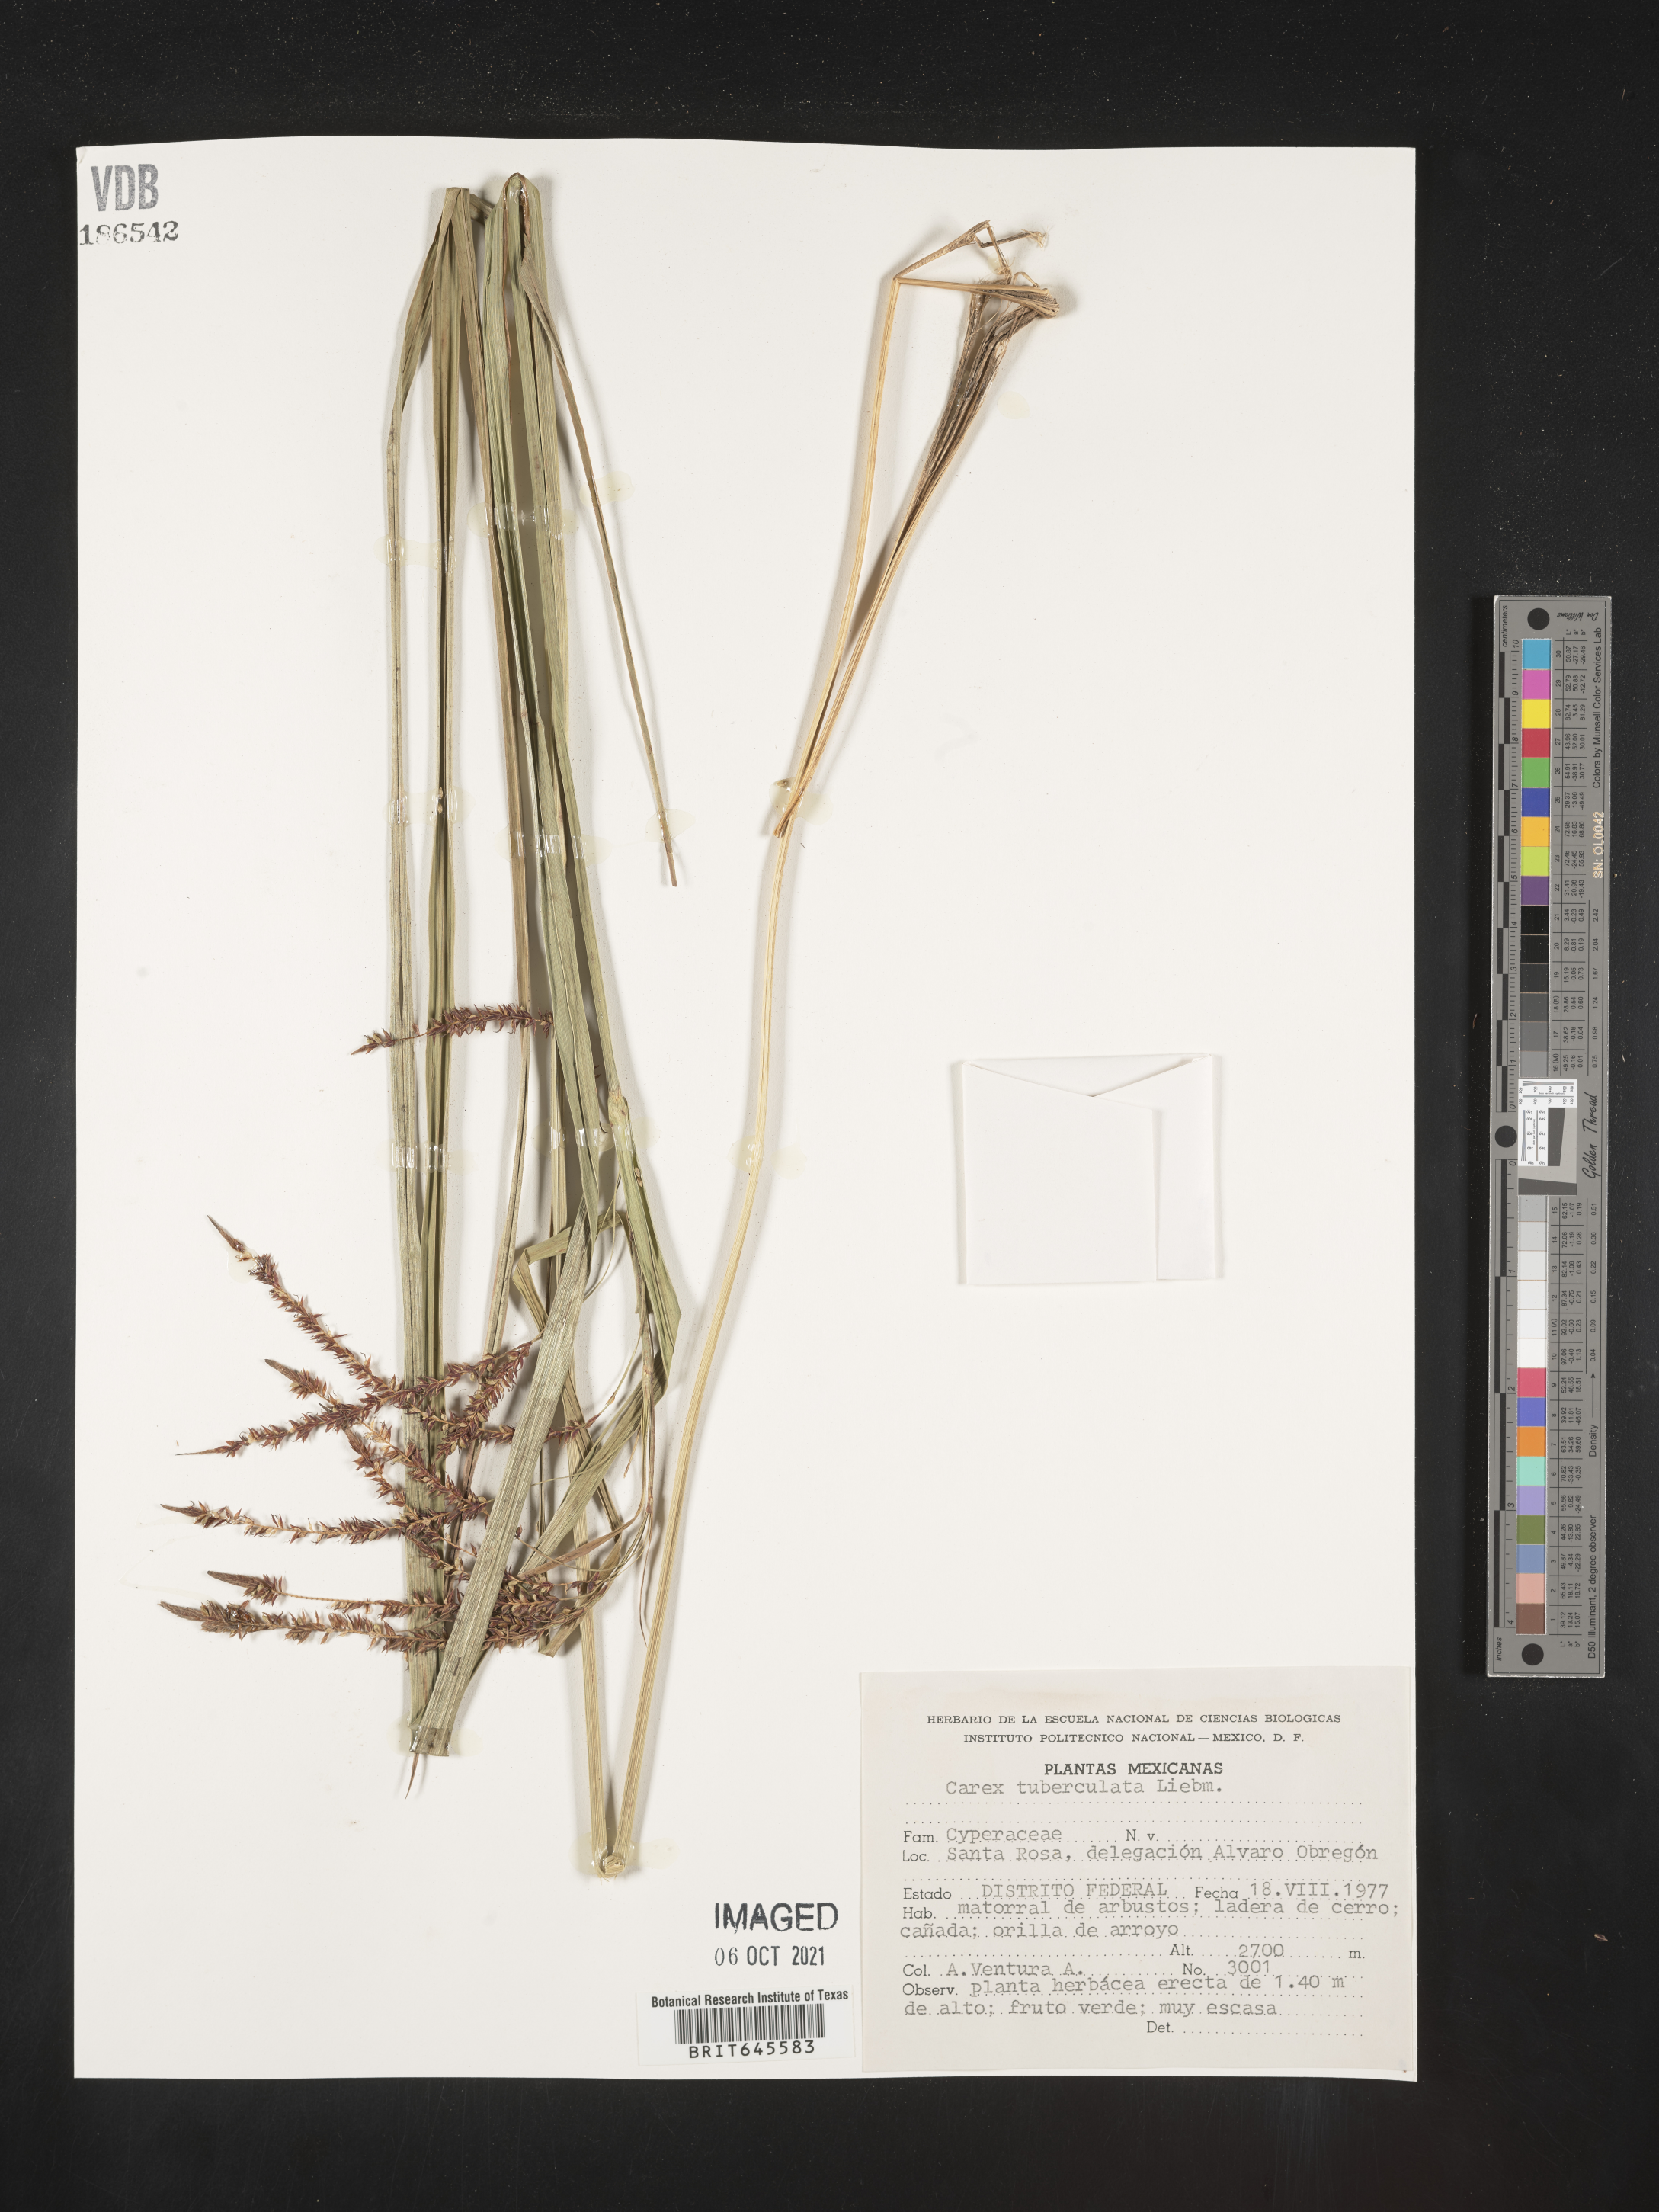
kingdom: Plantae
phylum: Tracheophyta
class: Liliopsida
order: Poales
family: Cyperaceae
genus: Carex
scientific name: Carex
